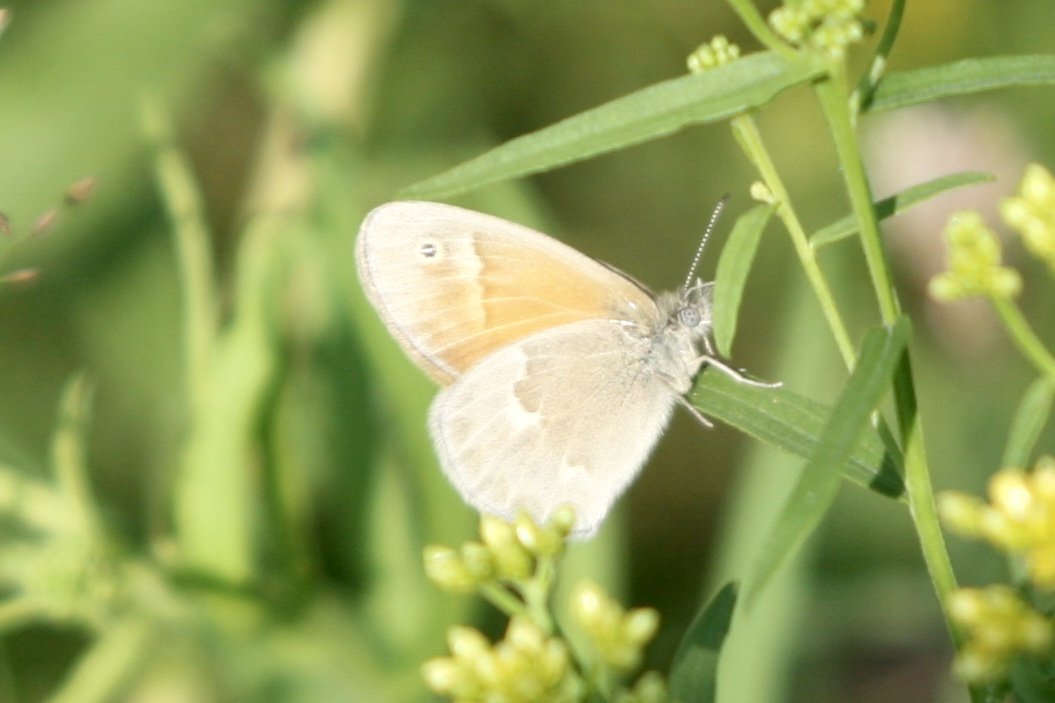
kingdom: Animalia
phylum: Arthropoda
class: Insecta
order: Lepidoptera
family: Nymphalidae
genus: Coenonympha
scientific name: Coenonympha tullia
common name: Large Heath
